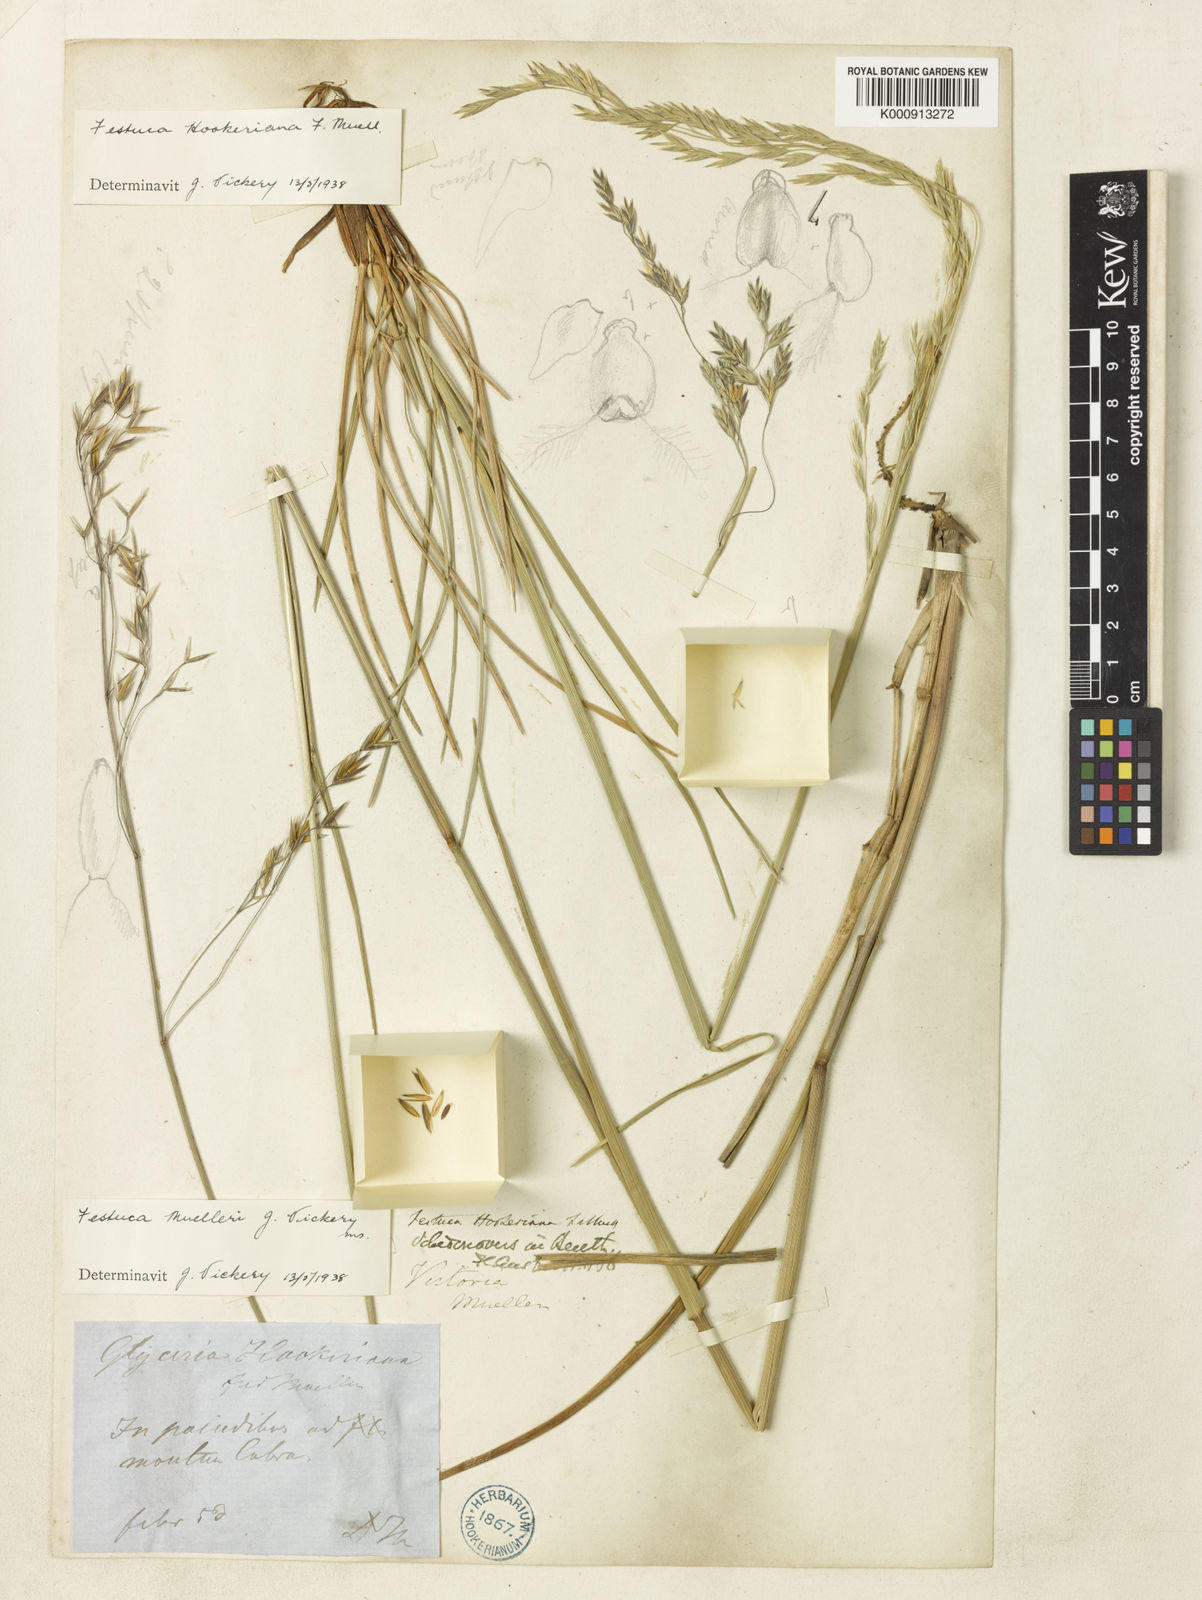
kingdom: Plantae
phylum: Tracheophyta
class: Liliopsida
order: Poales
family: Poaceae
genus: Festuca
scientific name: Festuca muelleri
